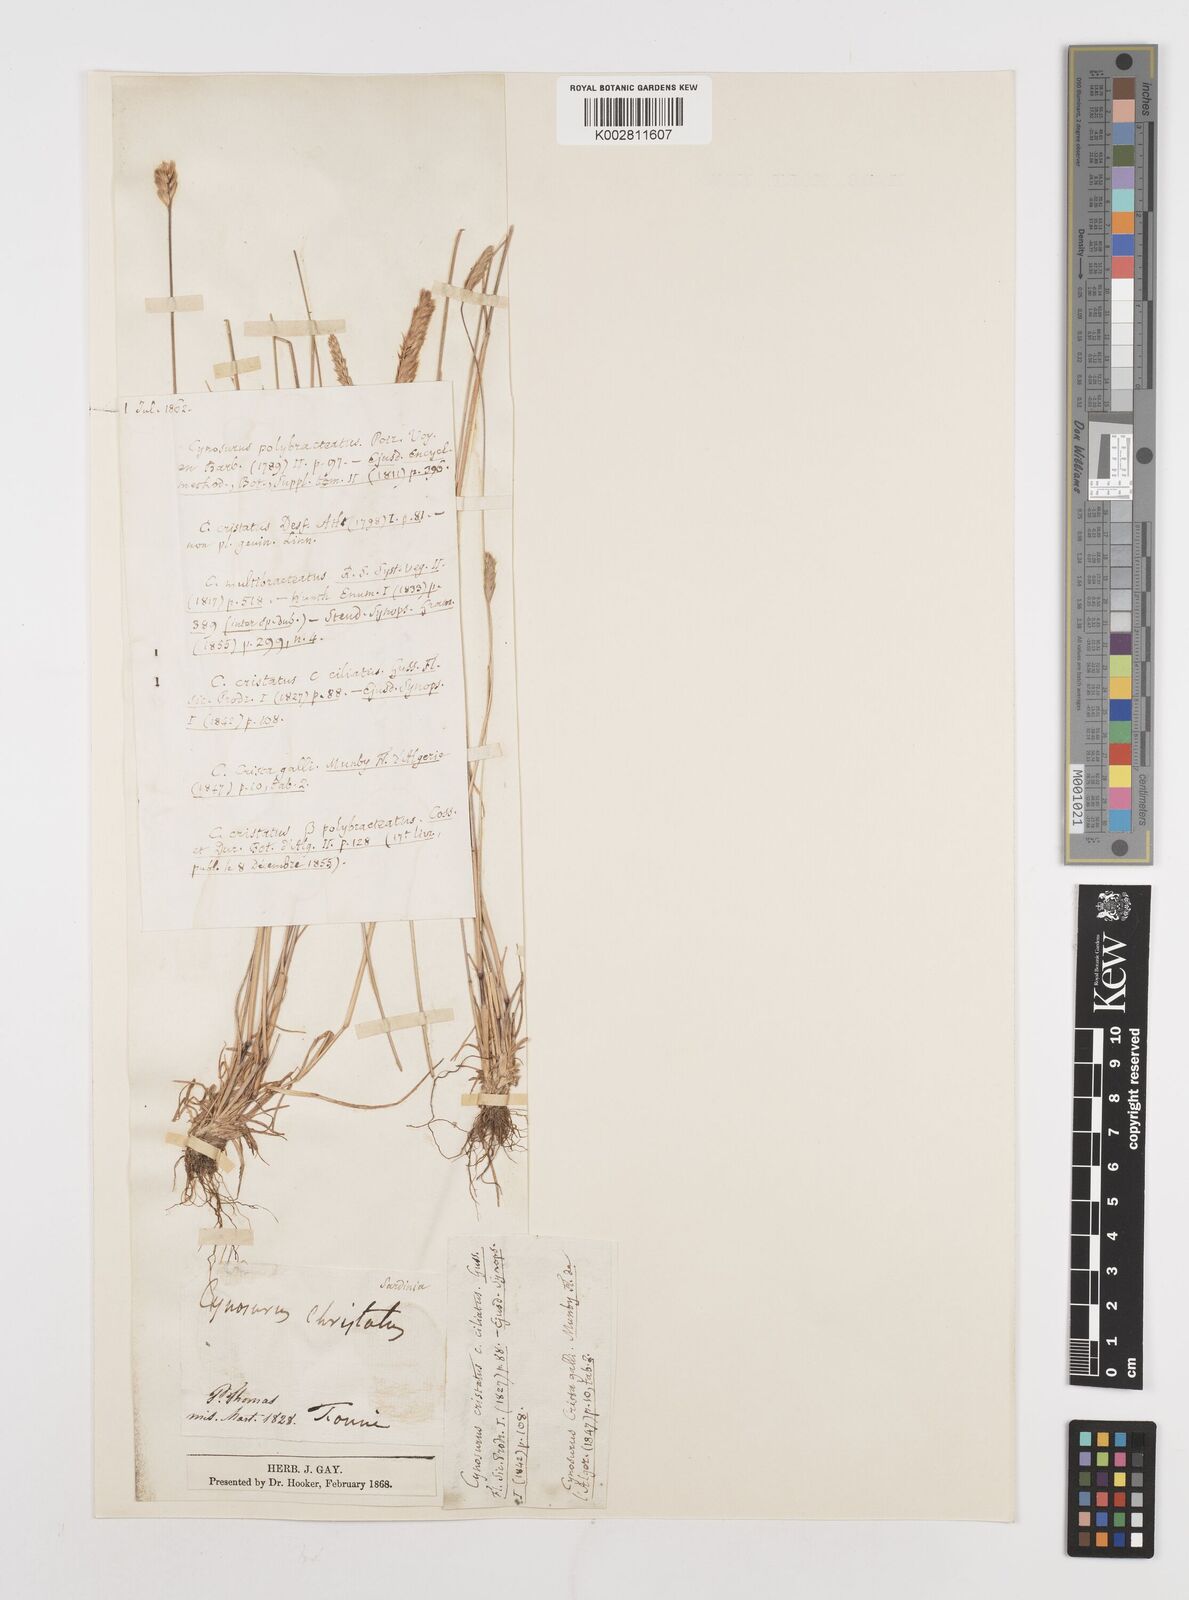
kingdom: Plantae
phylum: Tracheophyta
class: Liliopsida
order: Poales
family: Poaceae
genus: Cynosurus
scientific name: Cynosurus cristatus
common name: Crested dog's-tail
